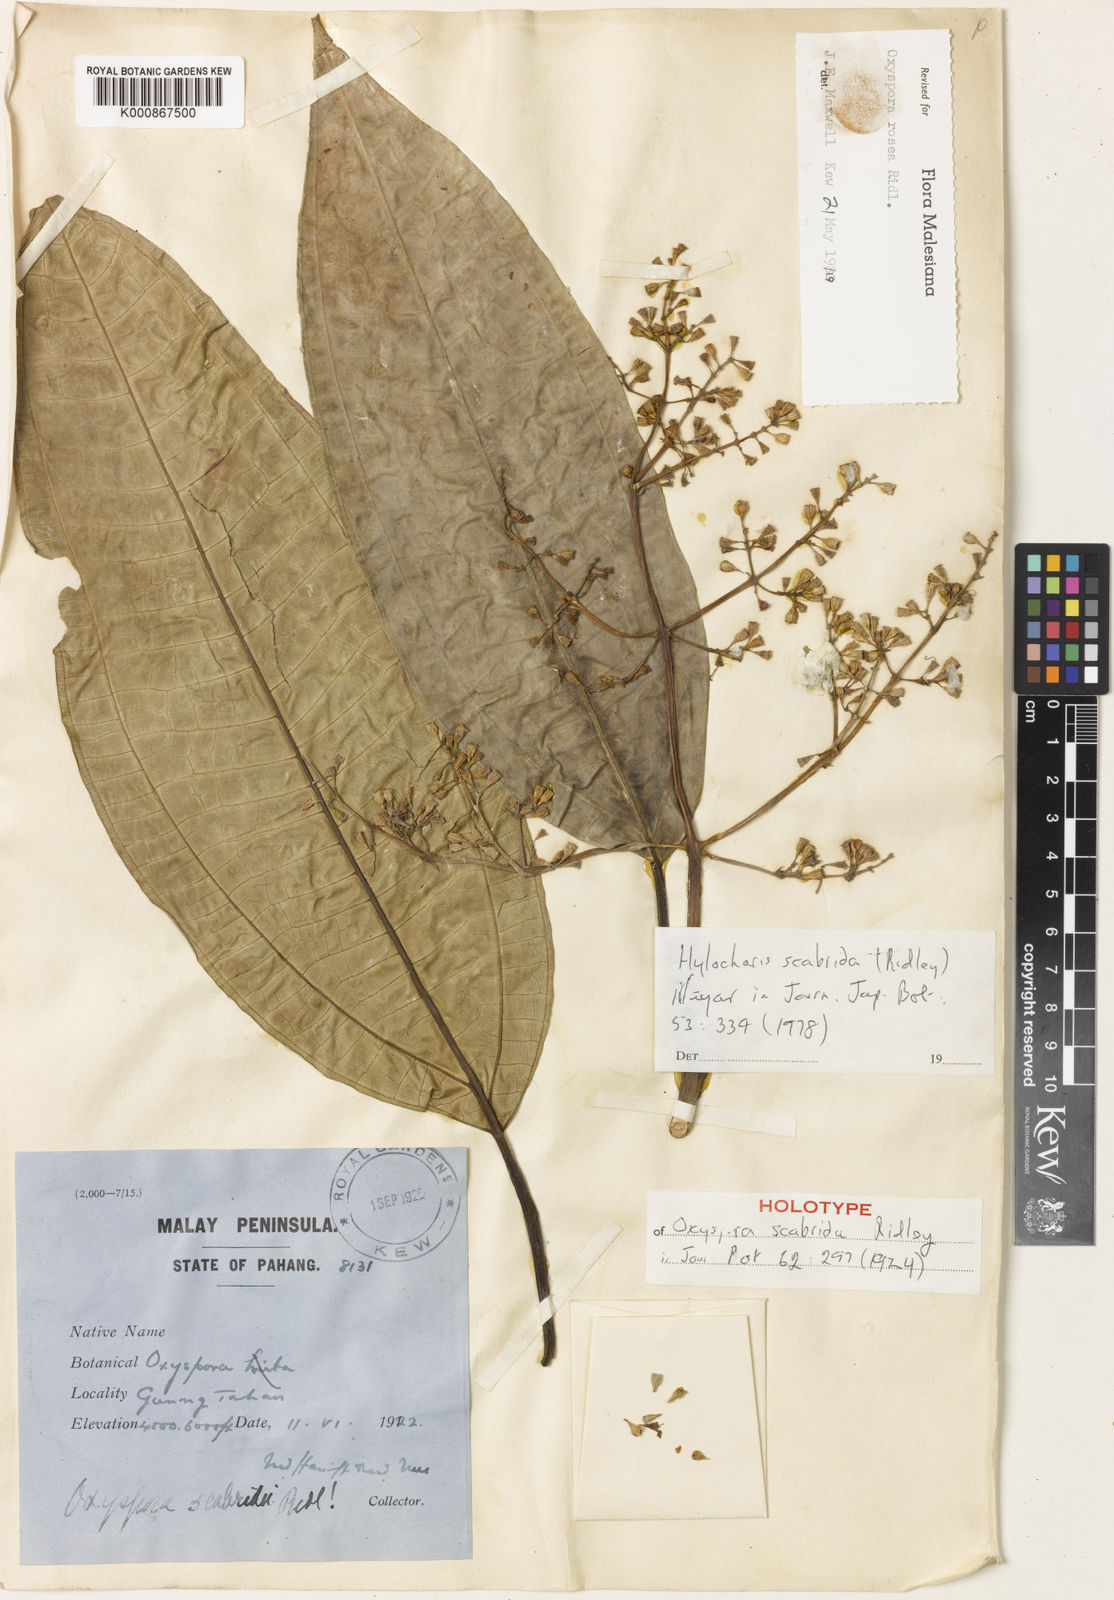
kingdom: Plantae
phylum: Tracheophyta
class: Magnoliopsida
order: Myrtales
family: Melastomataceae
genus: Allomorphia
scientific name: Allomorphia rosea
